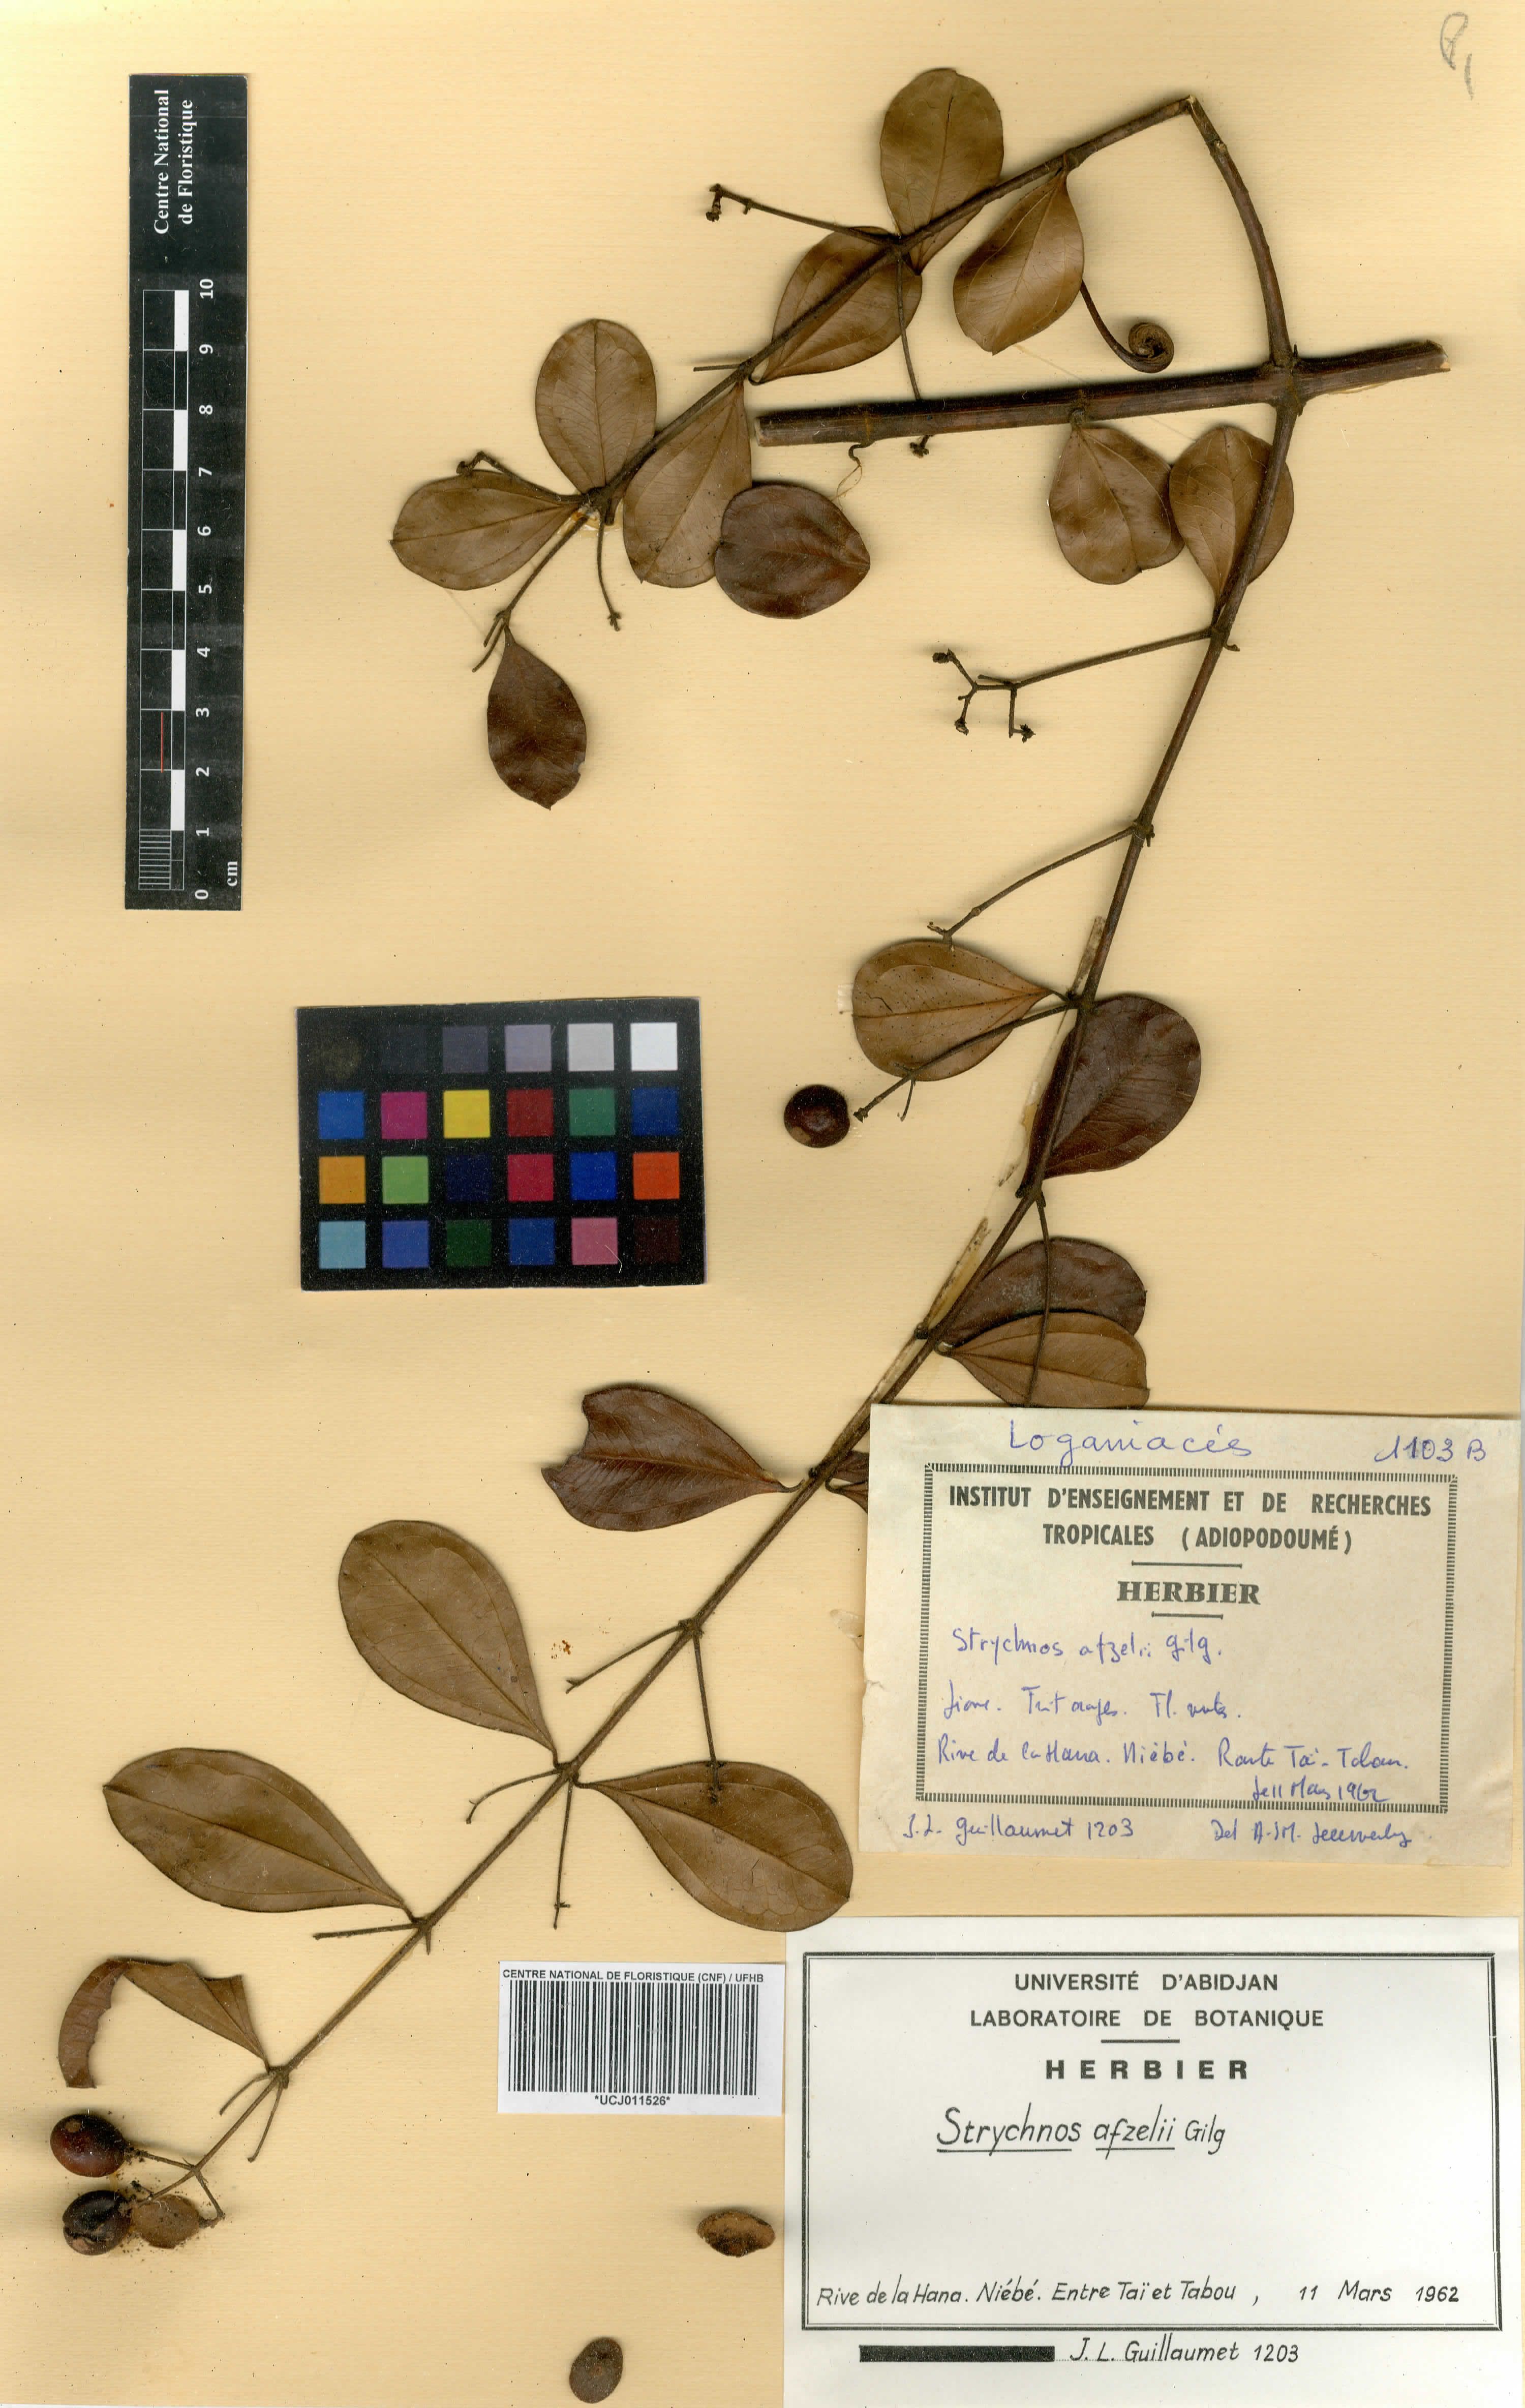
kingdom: Plantae
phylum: Tracheophyta
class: Magnoliopsida
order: Gentianales
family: Loganiaceae
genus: Strychnos
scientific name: Strychnos afzelii
